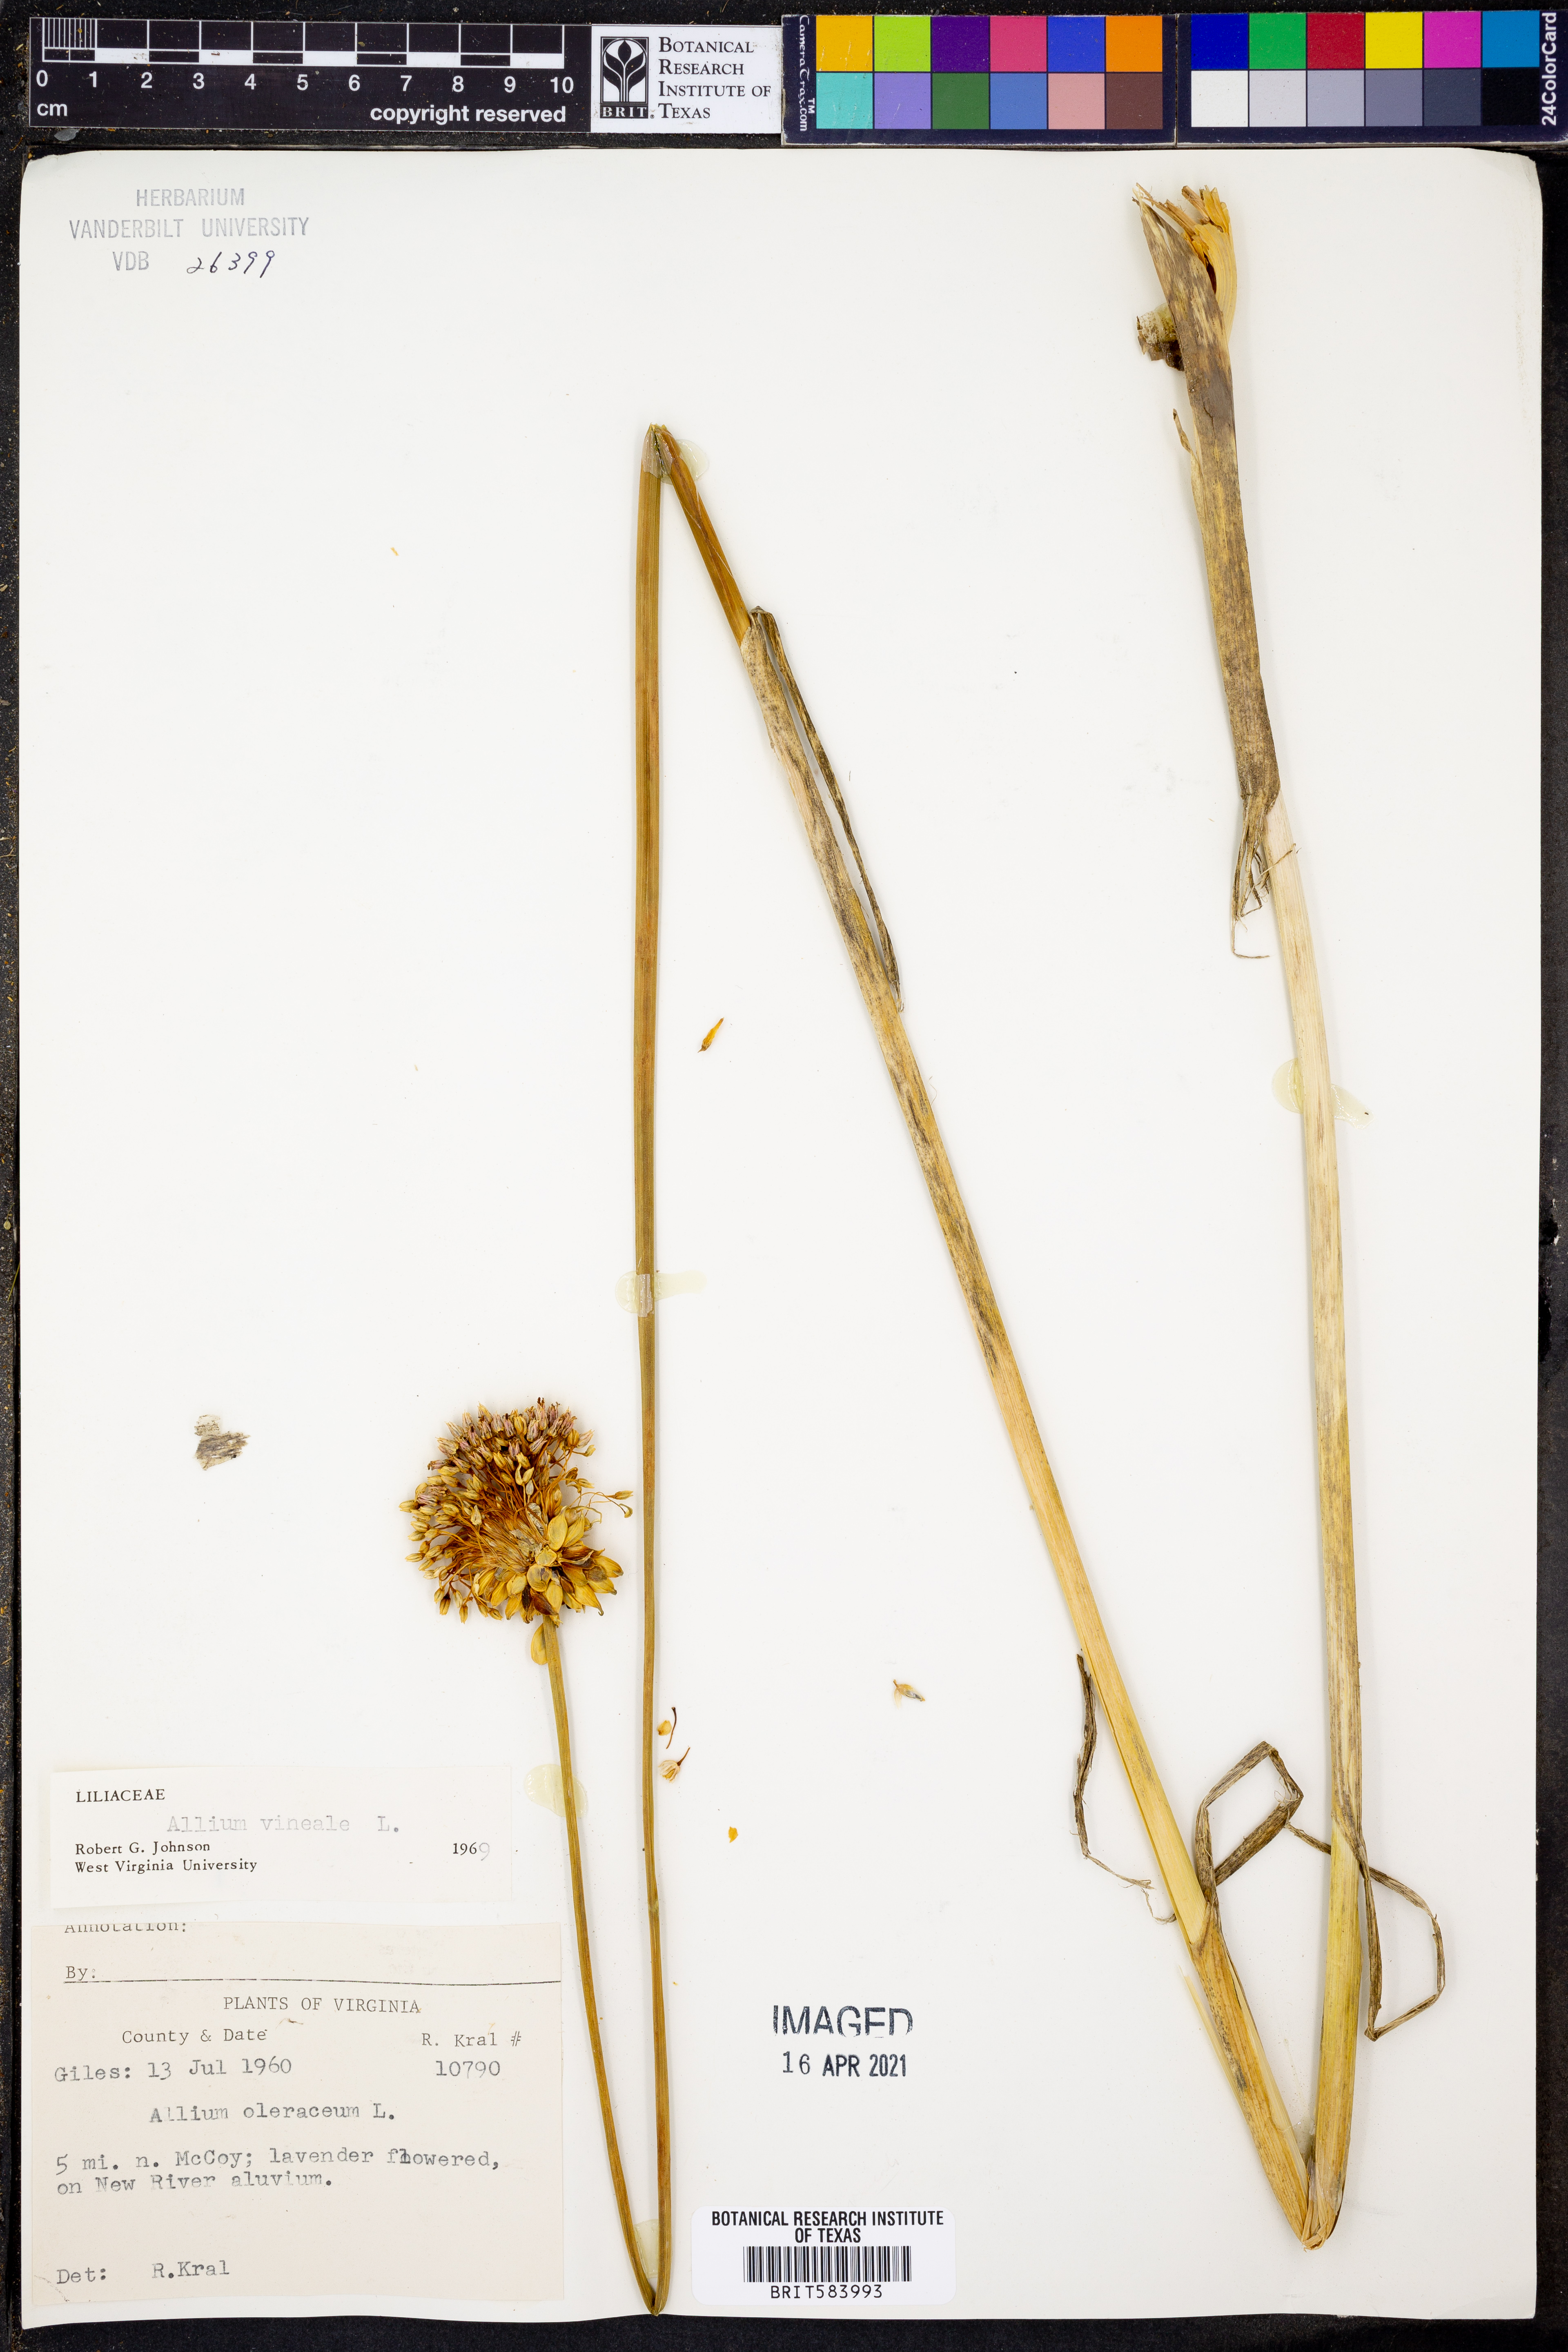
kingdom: Plantae
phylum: Tracheophyta
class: Liliopsida
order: Asparagales
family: Amaryllidaceae
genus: Allium
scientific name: Allium vineale
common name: Crow garlic
